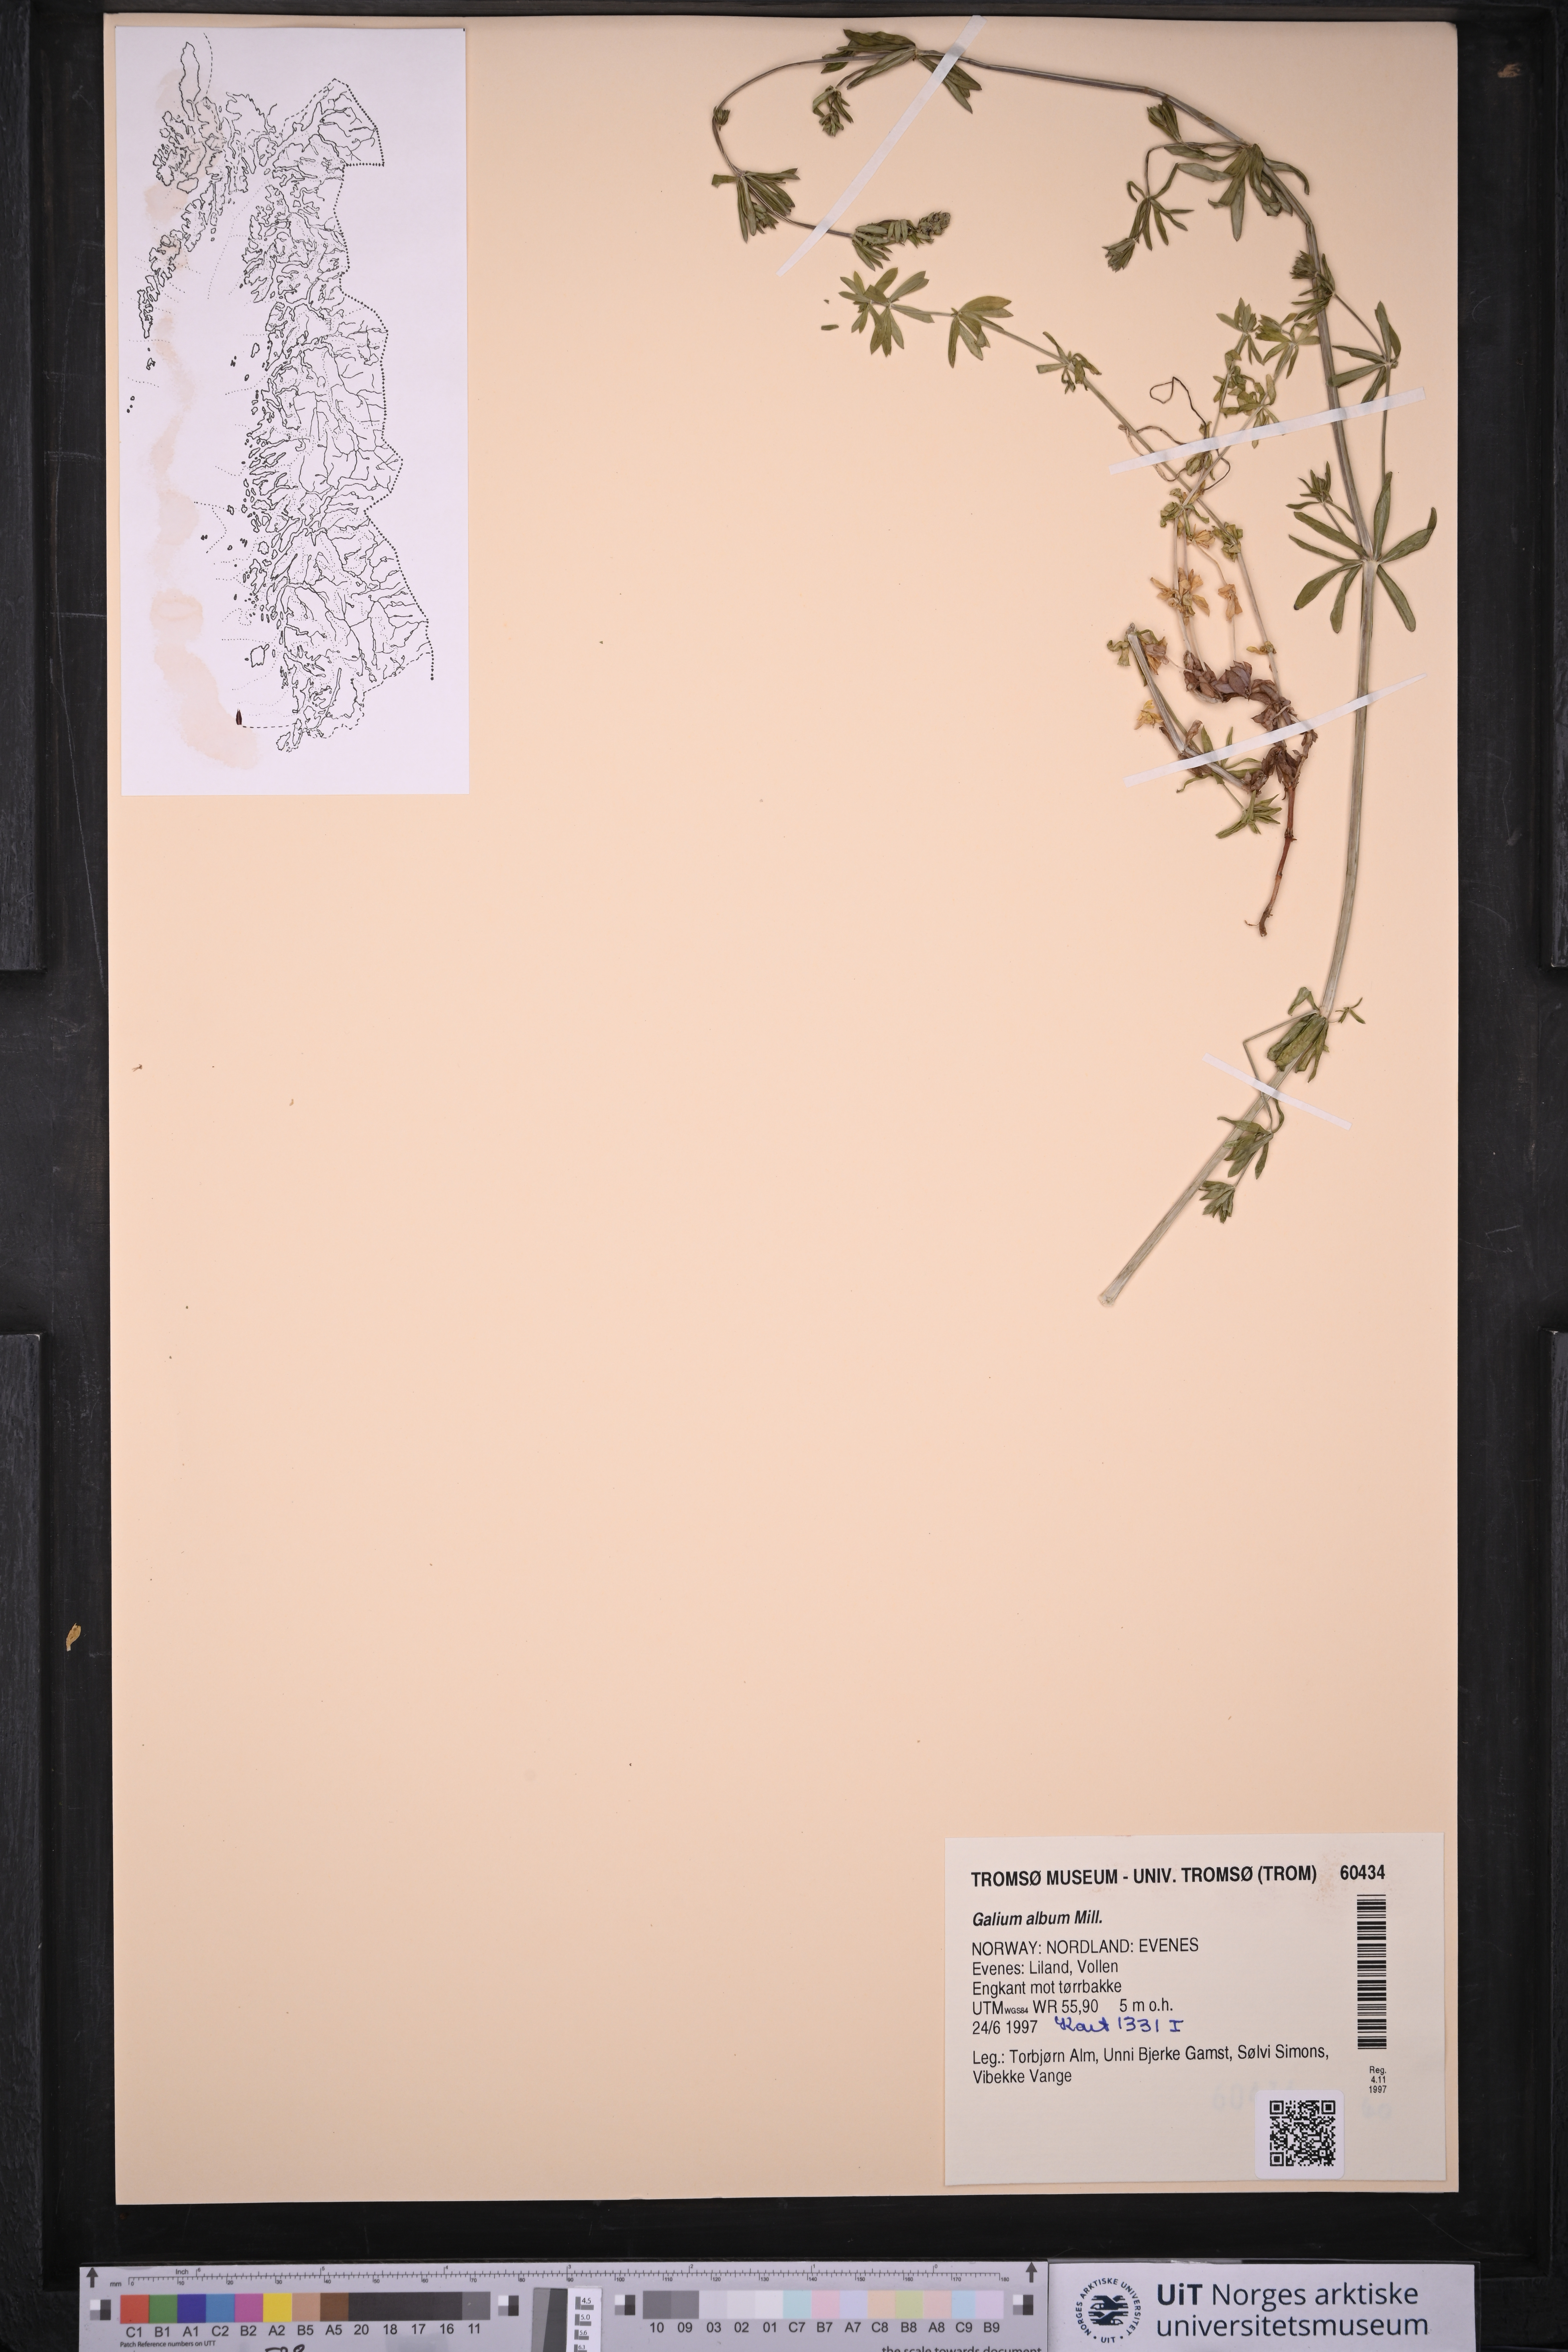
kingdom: Plantae
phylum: Tracheophyta
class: Magnoliopsida
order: Gentianales
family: Rubiaceae
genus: Galium
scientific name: Galium album
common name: White bedstraw
